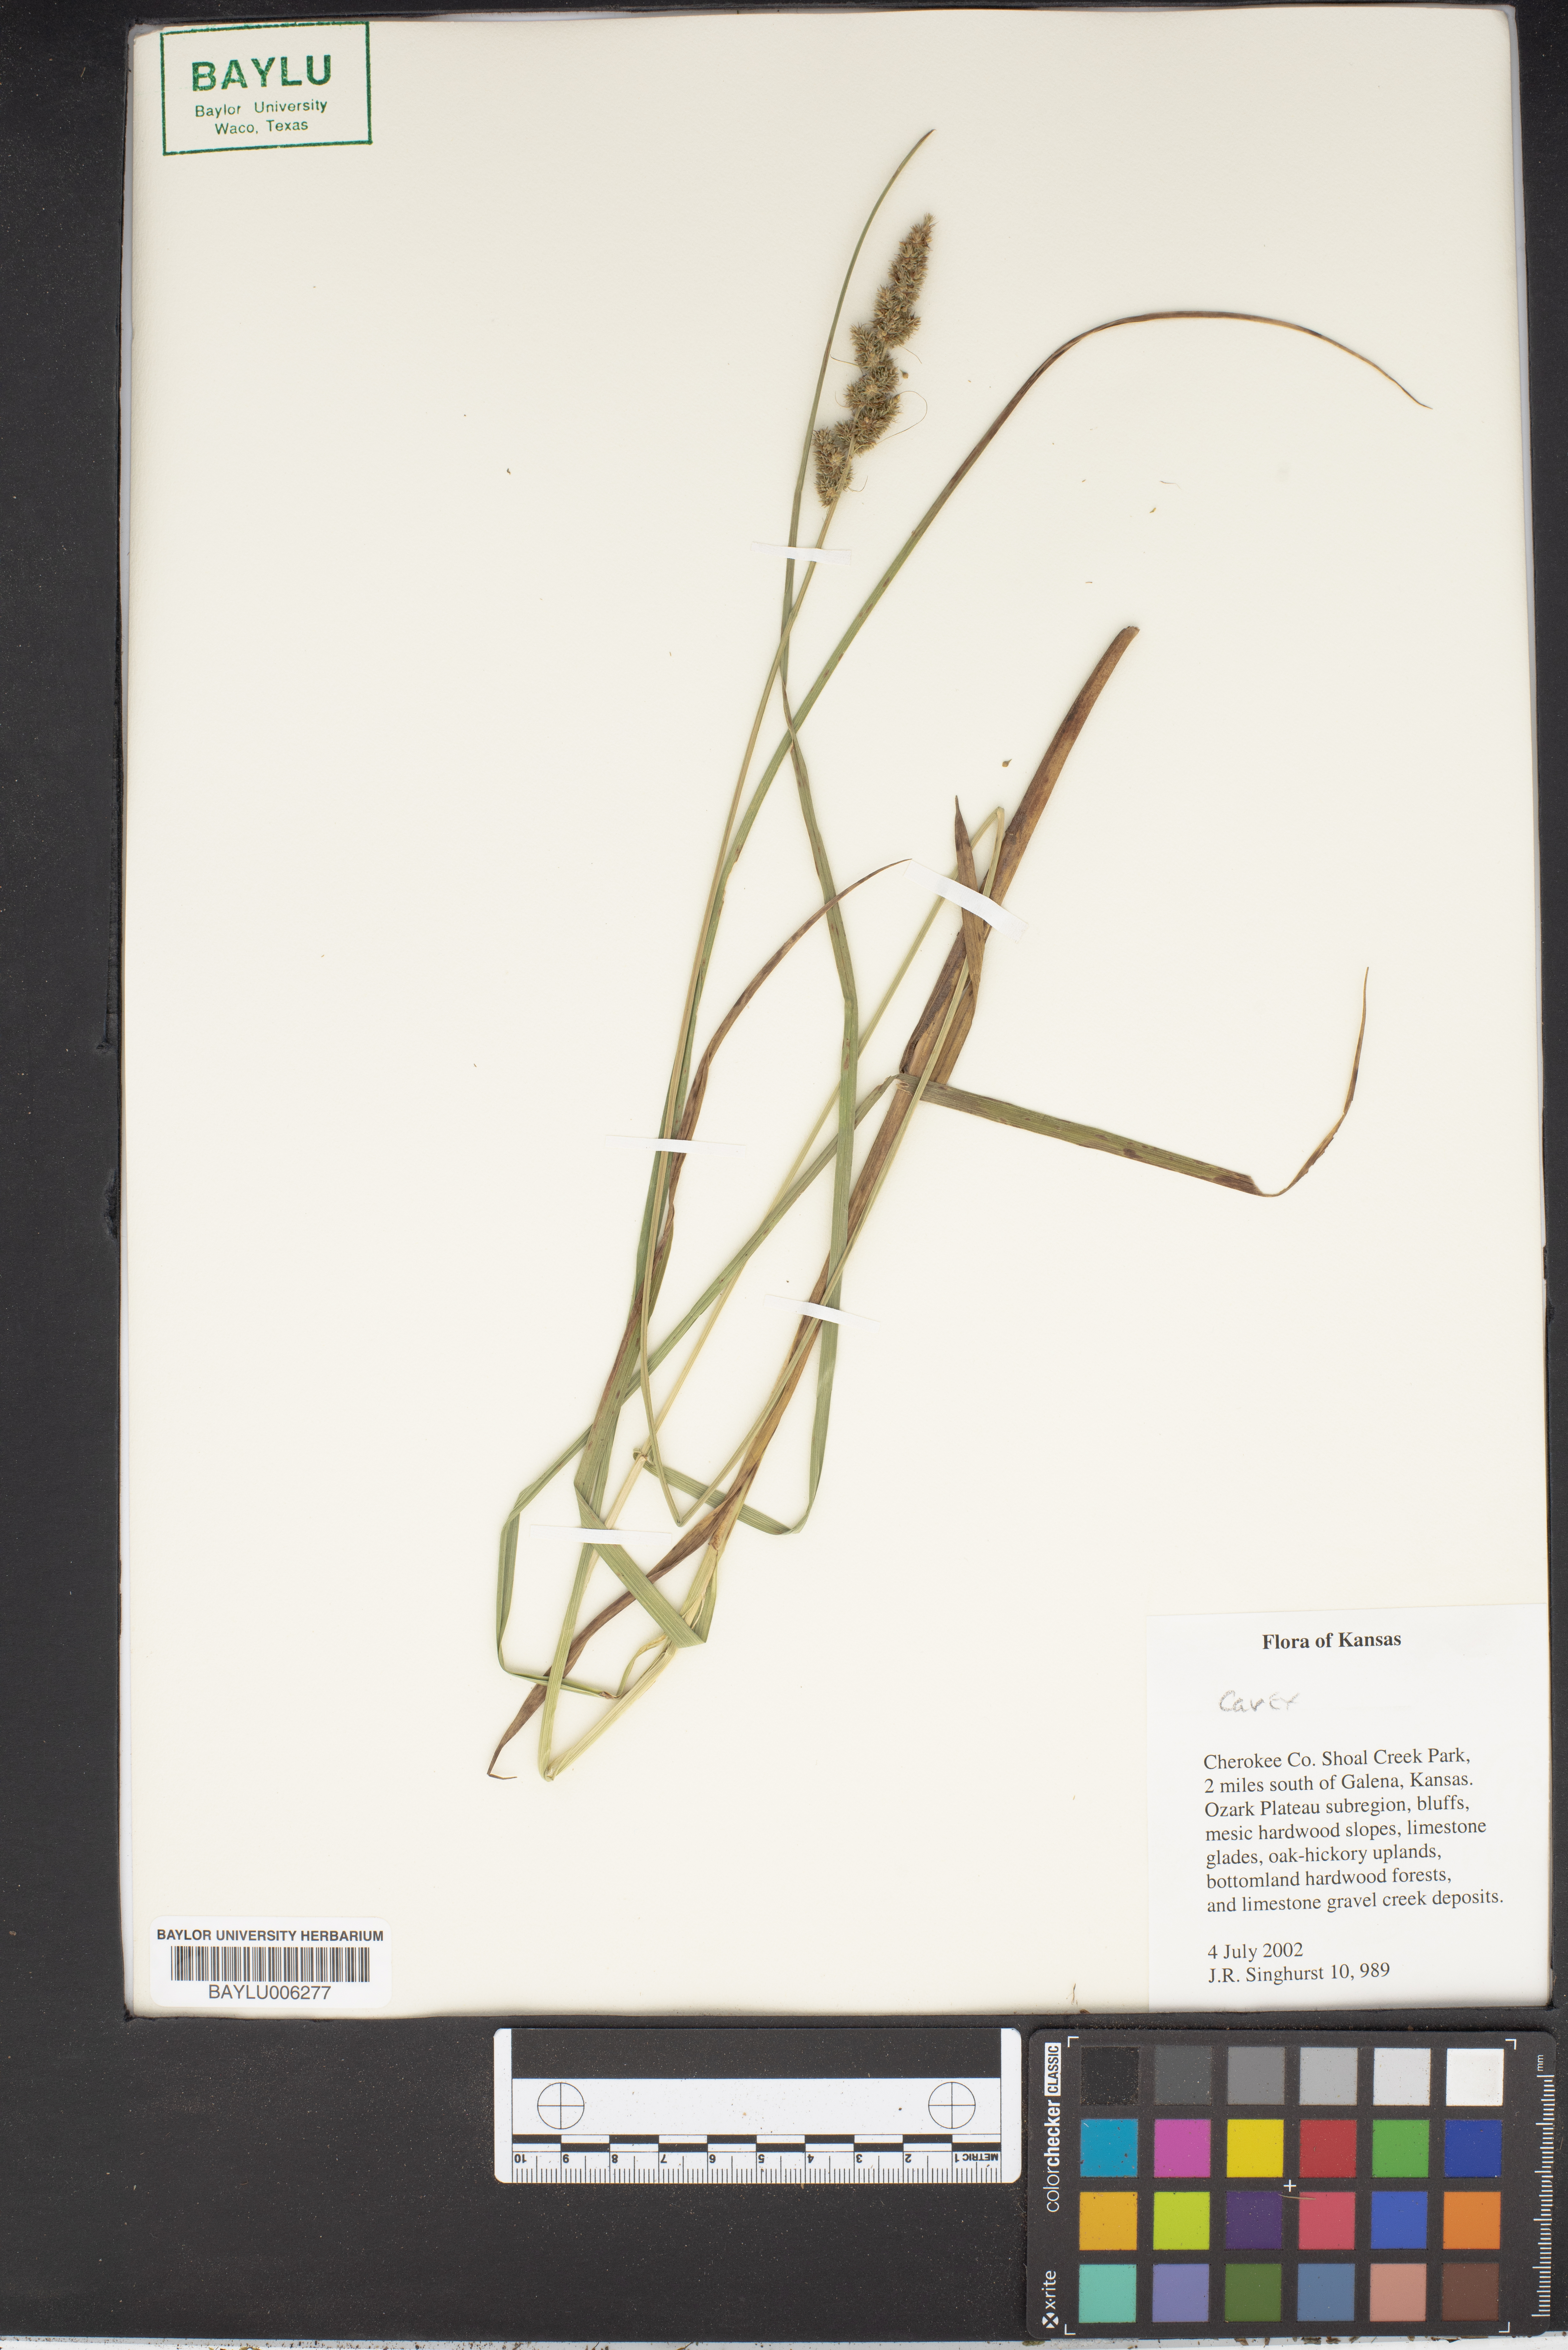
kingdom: Plantae
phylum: Tracheophyta
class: Liliopsida
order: Poales
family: Cyperaceae
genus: Carex
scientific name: Carex
